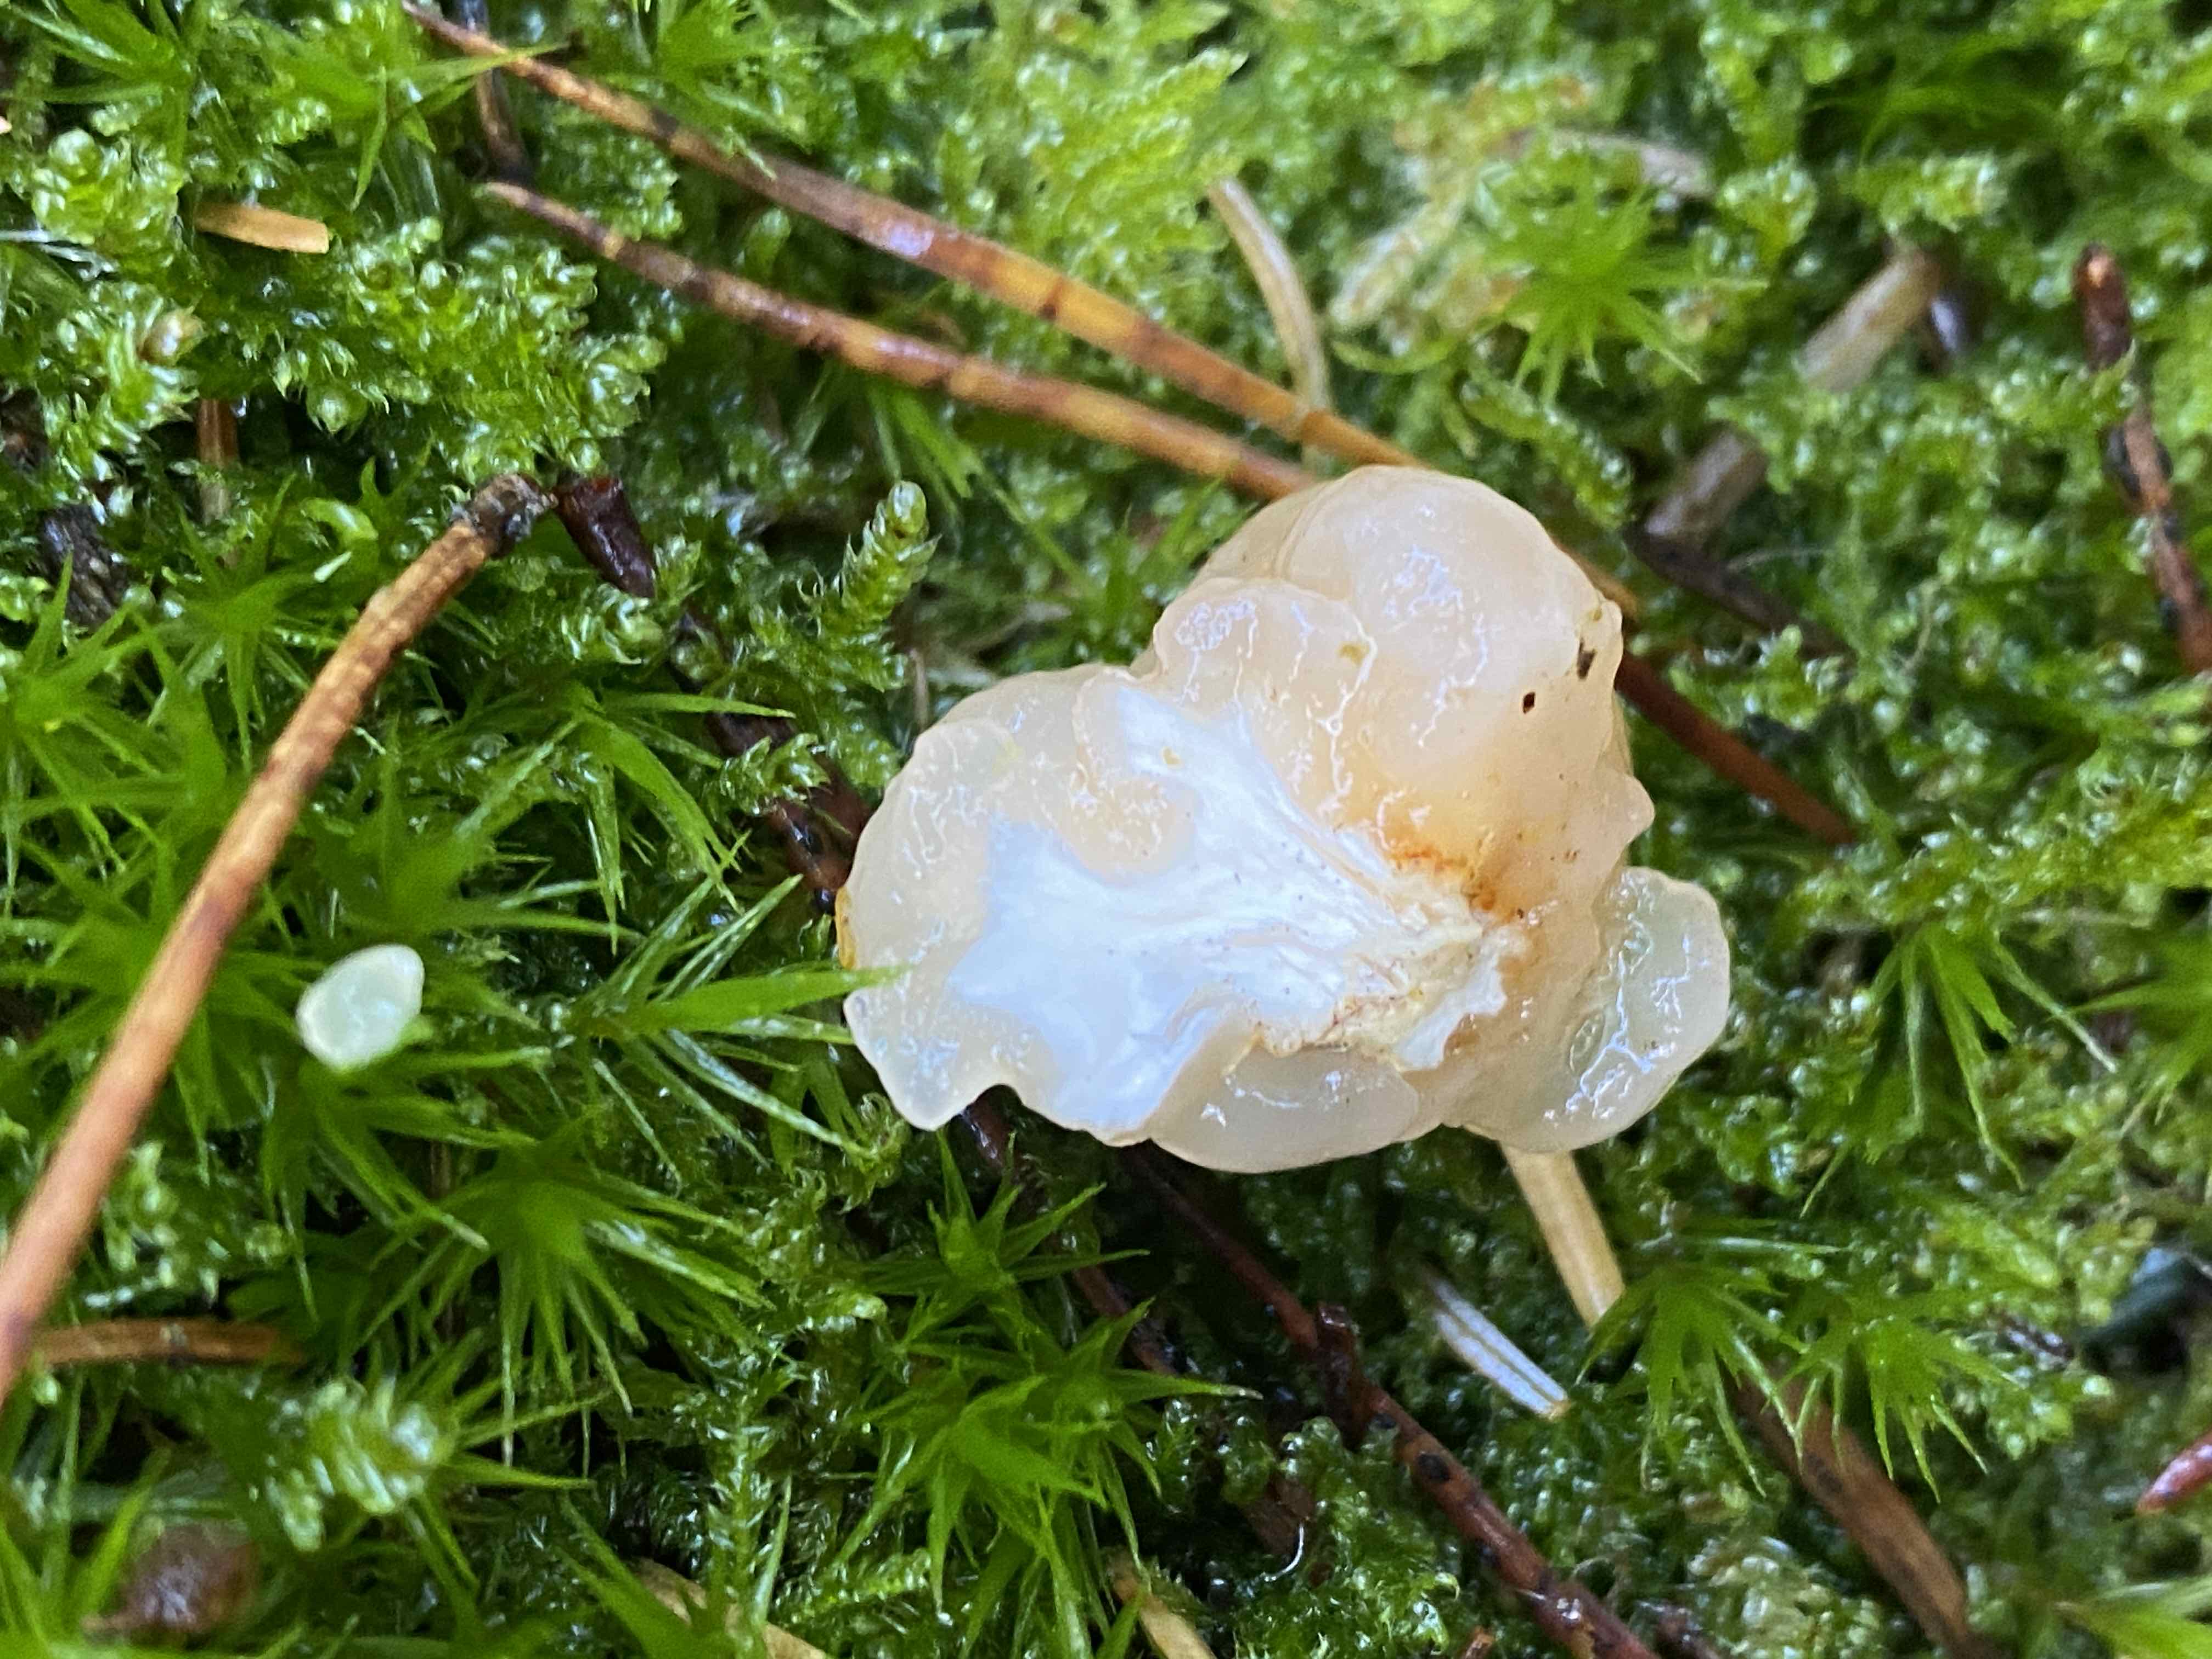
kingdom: Fungi
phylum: Basidiomycota
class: Tremellomycetes
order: Tremellales
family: Naemateliaceae
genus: Naematelia
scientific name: Naematelia encephala
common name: fyrre-bævresvamp
